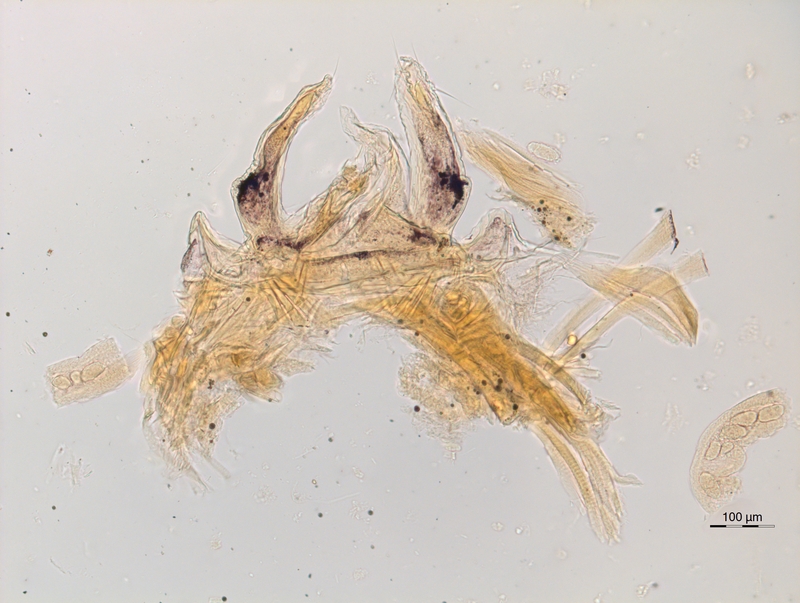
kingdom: Animalia
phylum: Arthropoda
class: Diplopoda
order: Chordeumatida
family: Anthroleucosomatidae
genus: Anamastigona
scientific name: Anamastigona hispidula
